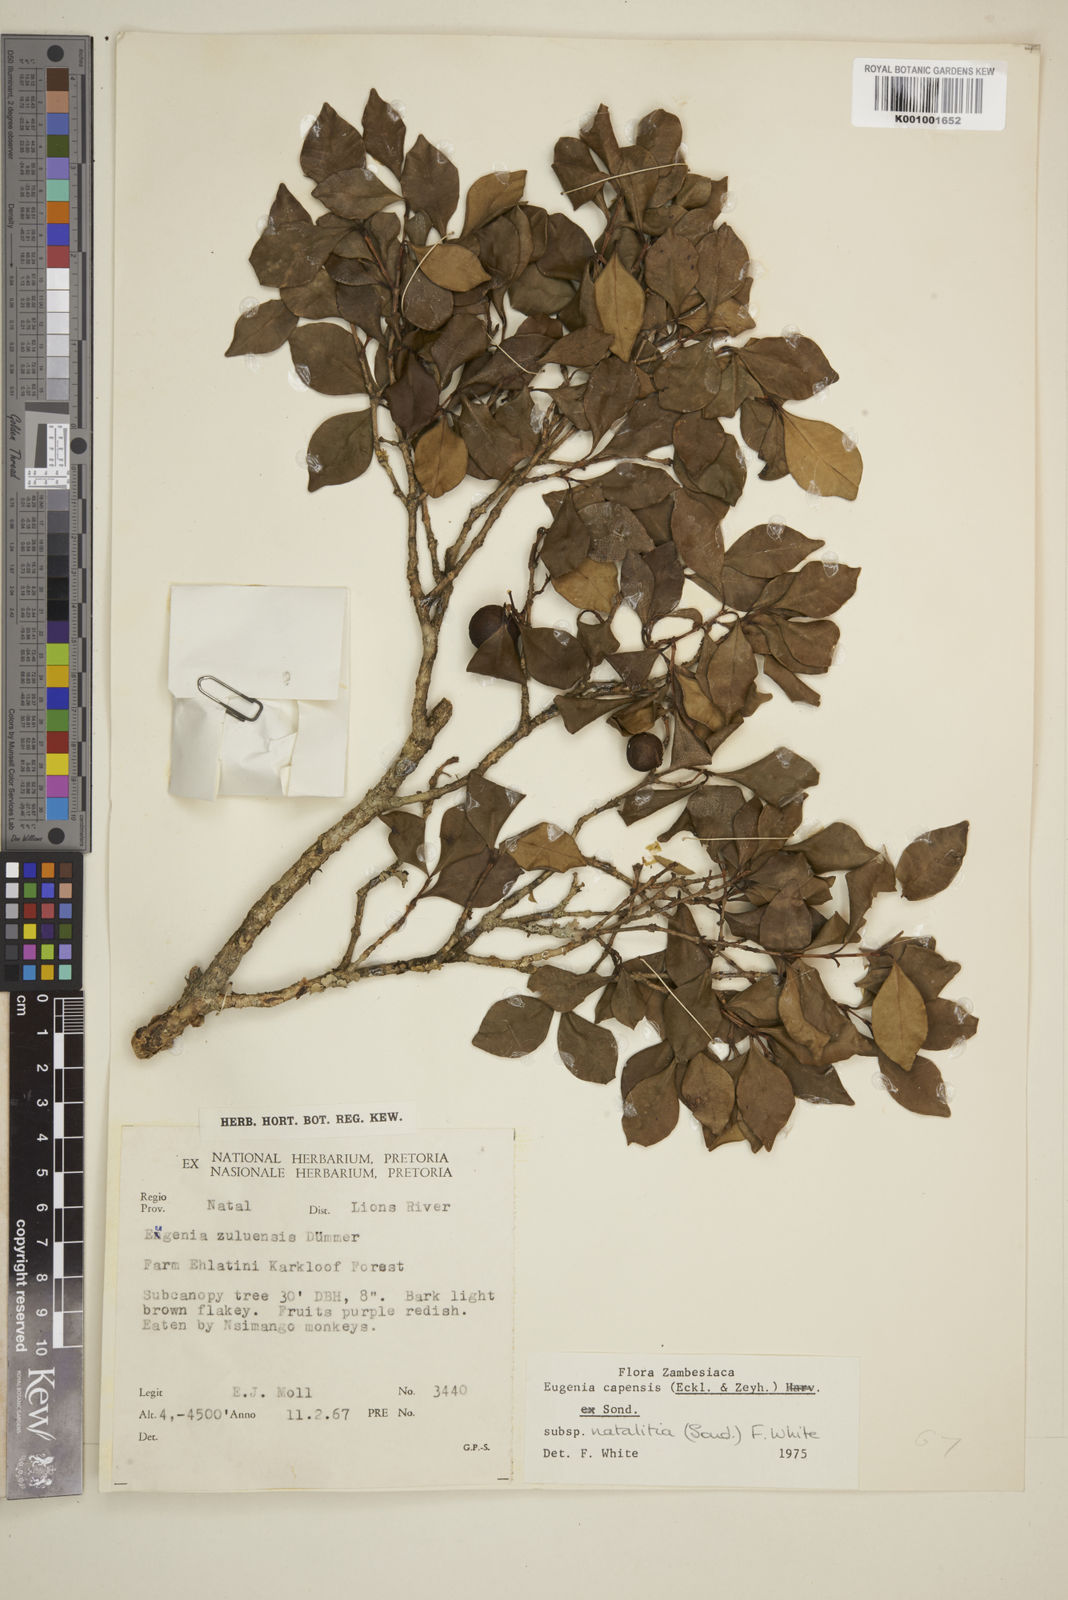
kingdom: Plantae
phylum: Tracheophyta
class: Magnoliopsida
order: Myrtales
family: Myrtaceae
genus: Eugenia
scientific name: Eugenia natalitia
